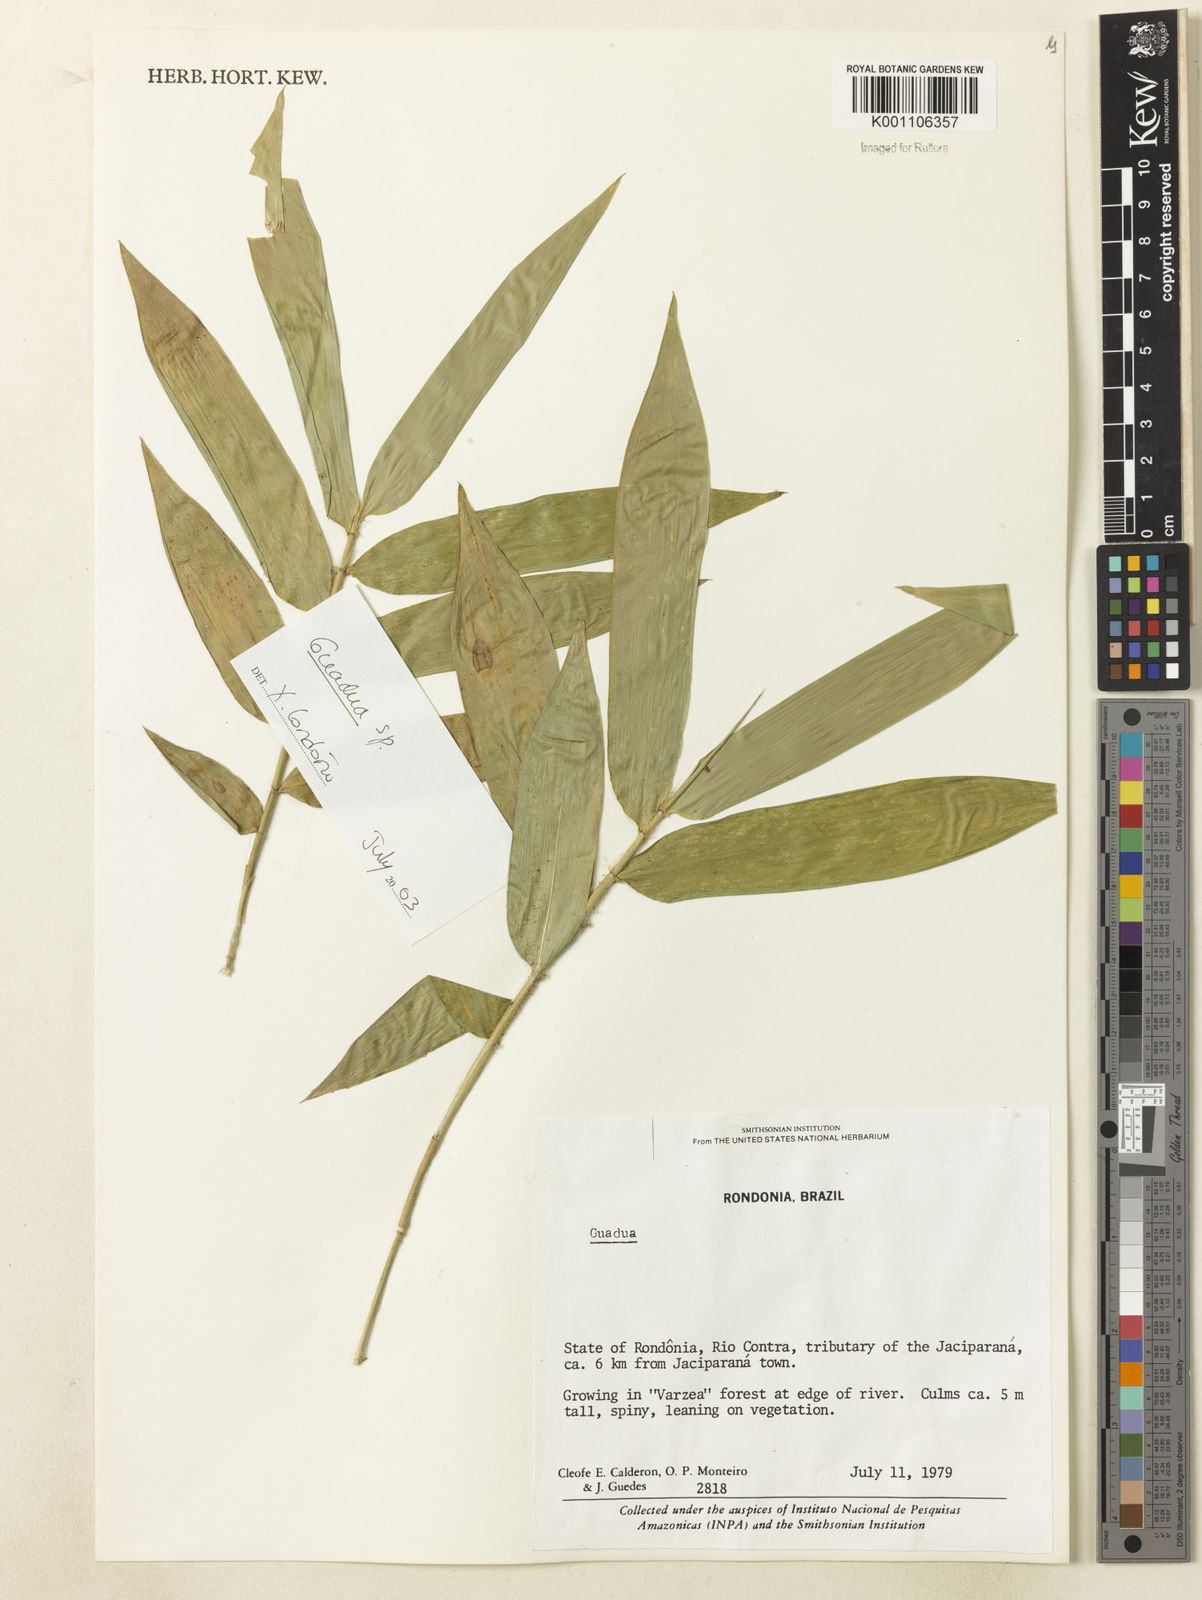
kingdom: Plantae
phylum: Tracheophyta
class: Liliopsida
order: Poales
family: Poaceae
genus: Guadua
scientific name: Guadua
